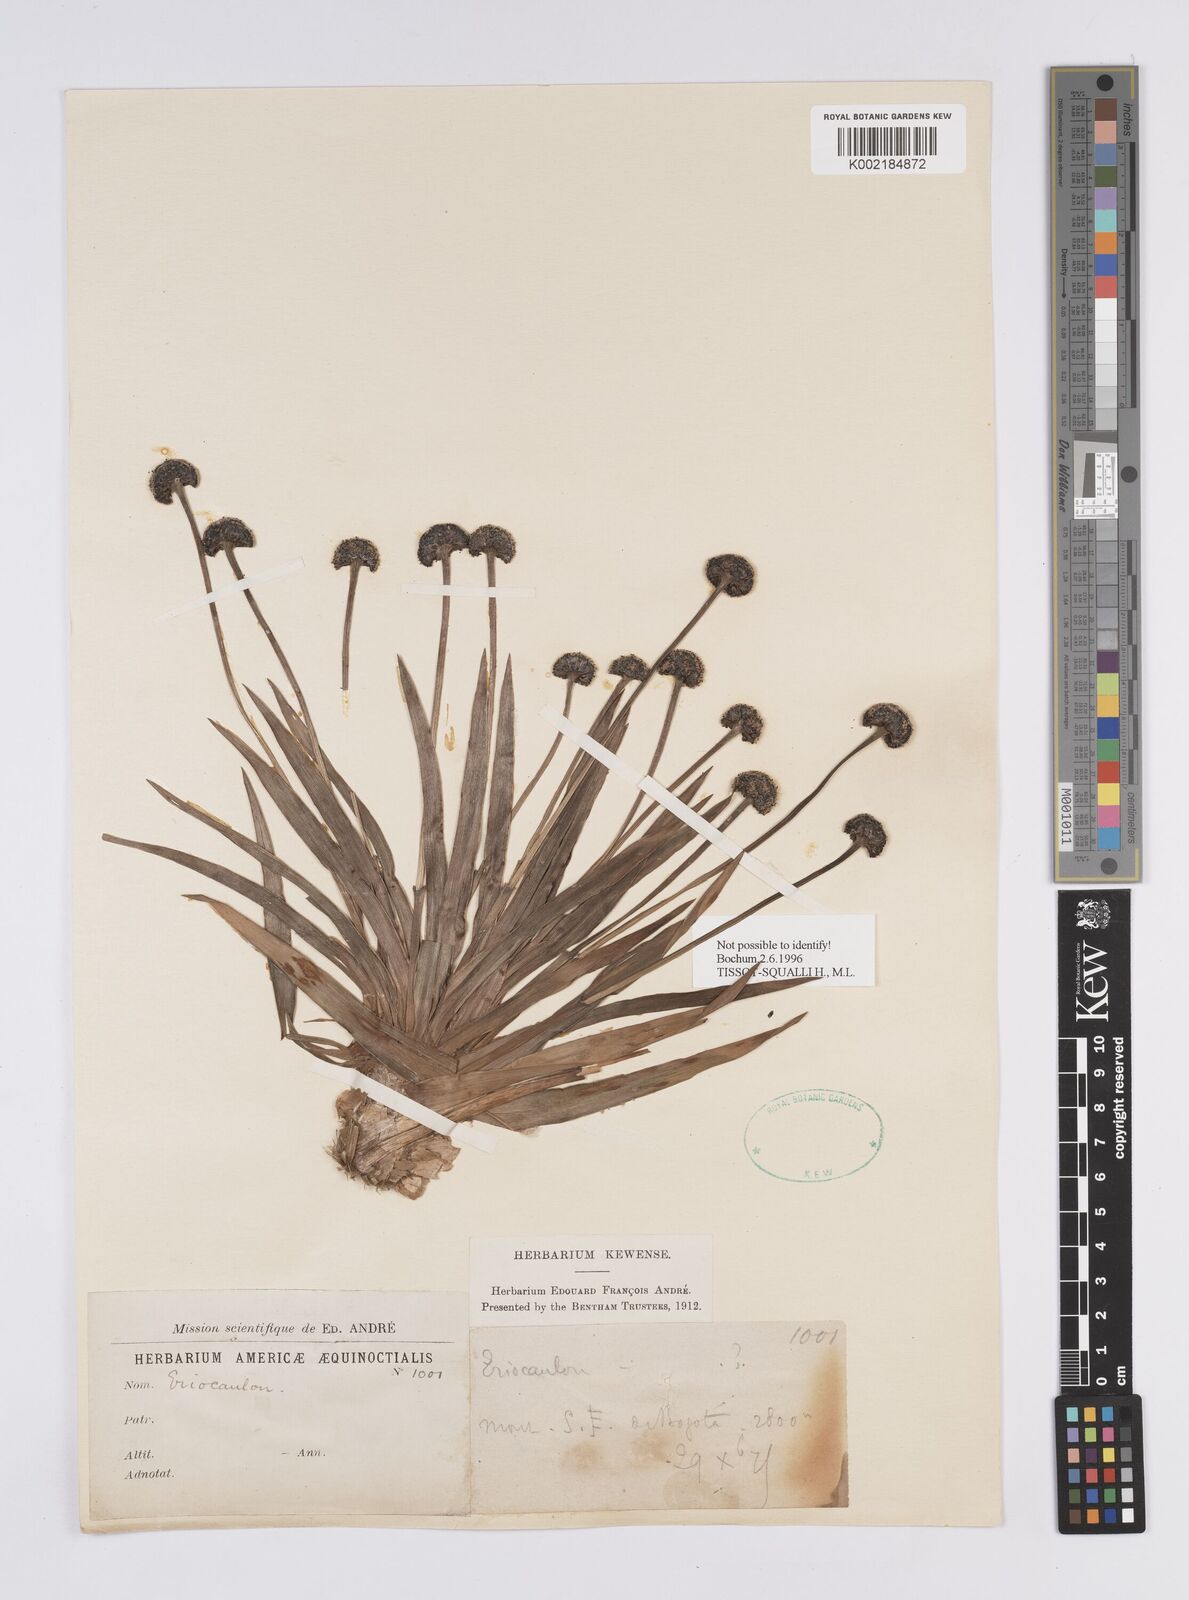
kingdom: Plantae
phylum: Tracheophyta
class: Liliopsida
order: Poales
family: Eriocaulaceae
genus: Eriocaulon
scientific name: Eriocaulon
